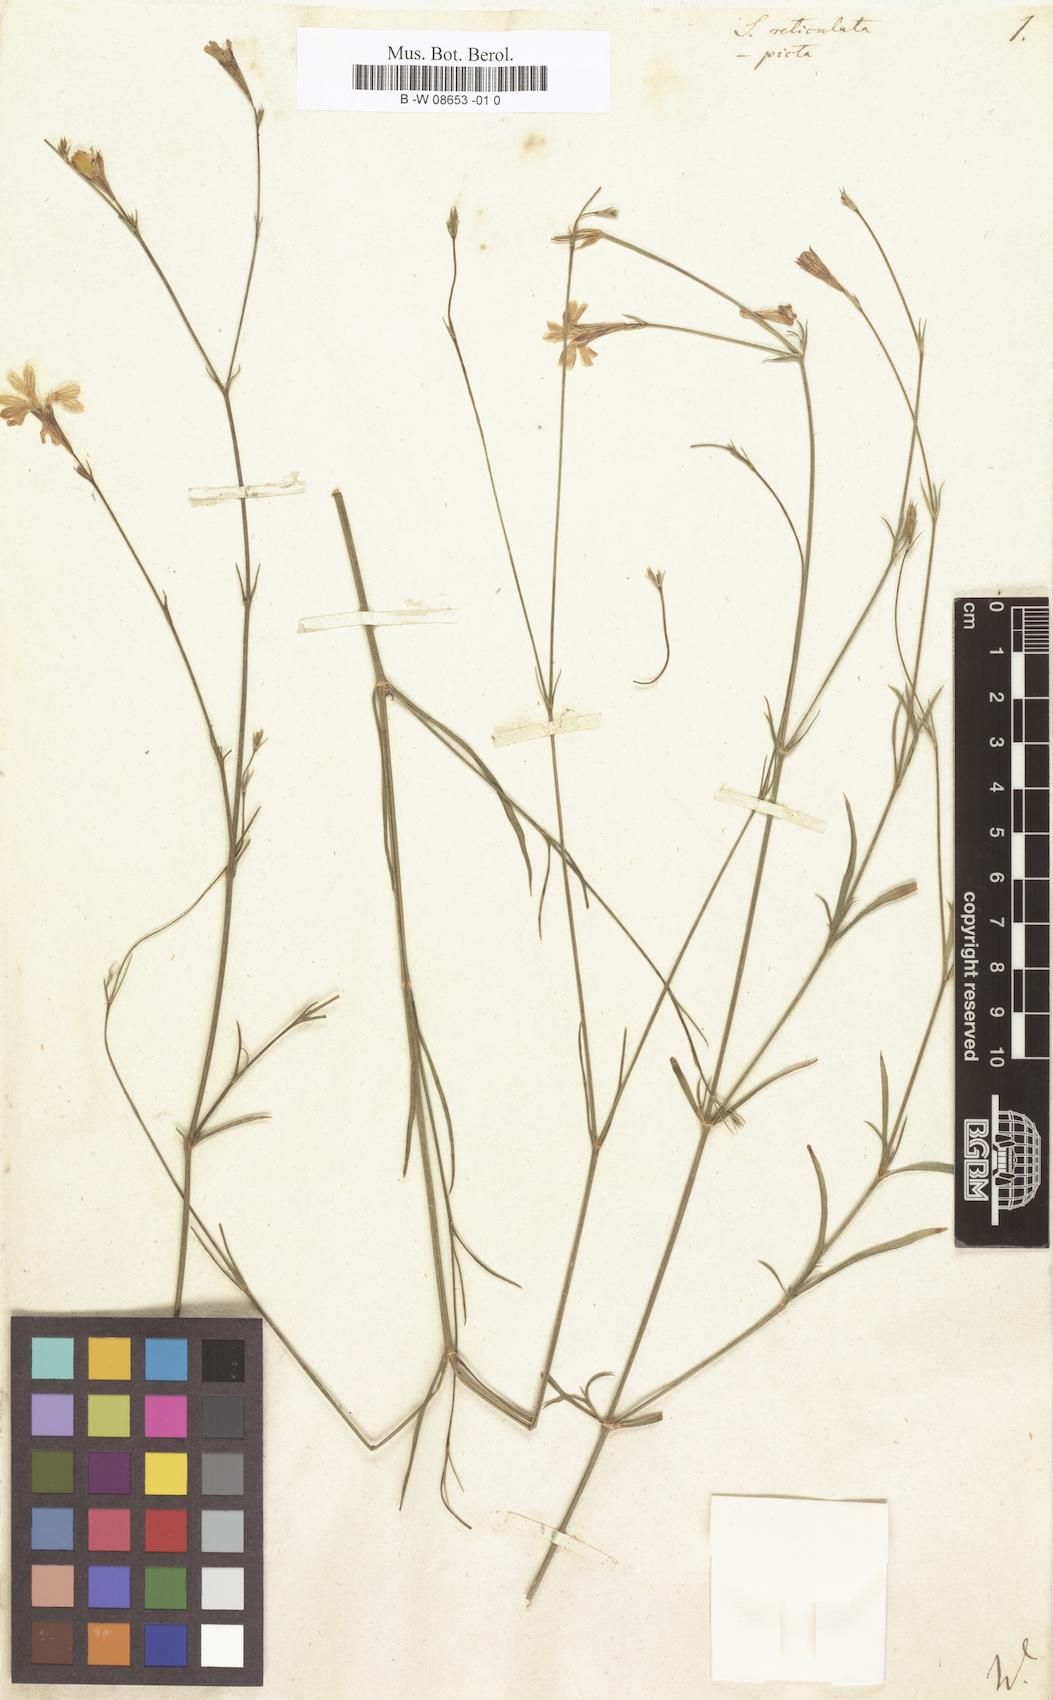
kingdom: Plantae
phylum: Tracheophyta
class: Magnoliopsida
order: Caryophyllales
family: Caryophyllaceae
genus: Silene
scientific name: Silene reticulata
